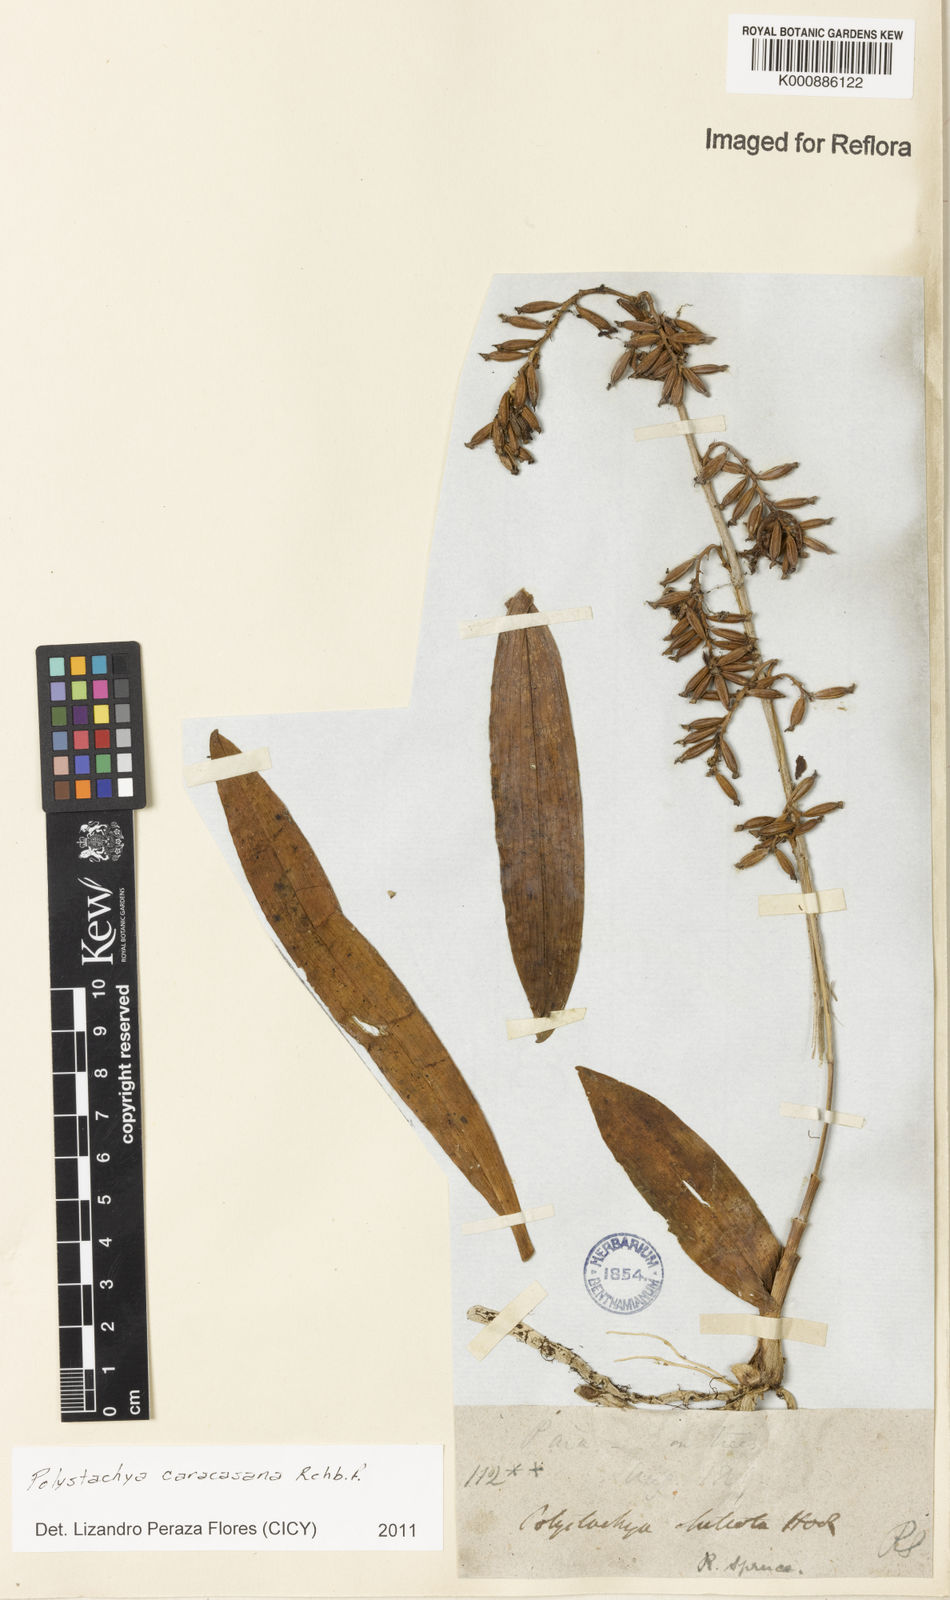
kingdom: Plantae
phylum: Tracheophyta
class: Liliopsida
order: Asparagales
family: Orchidaceae
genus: Polystachya
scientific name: Polystachya foliosa
